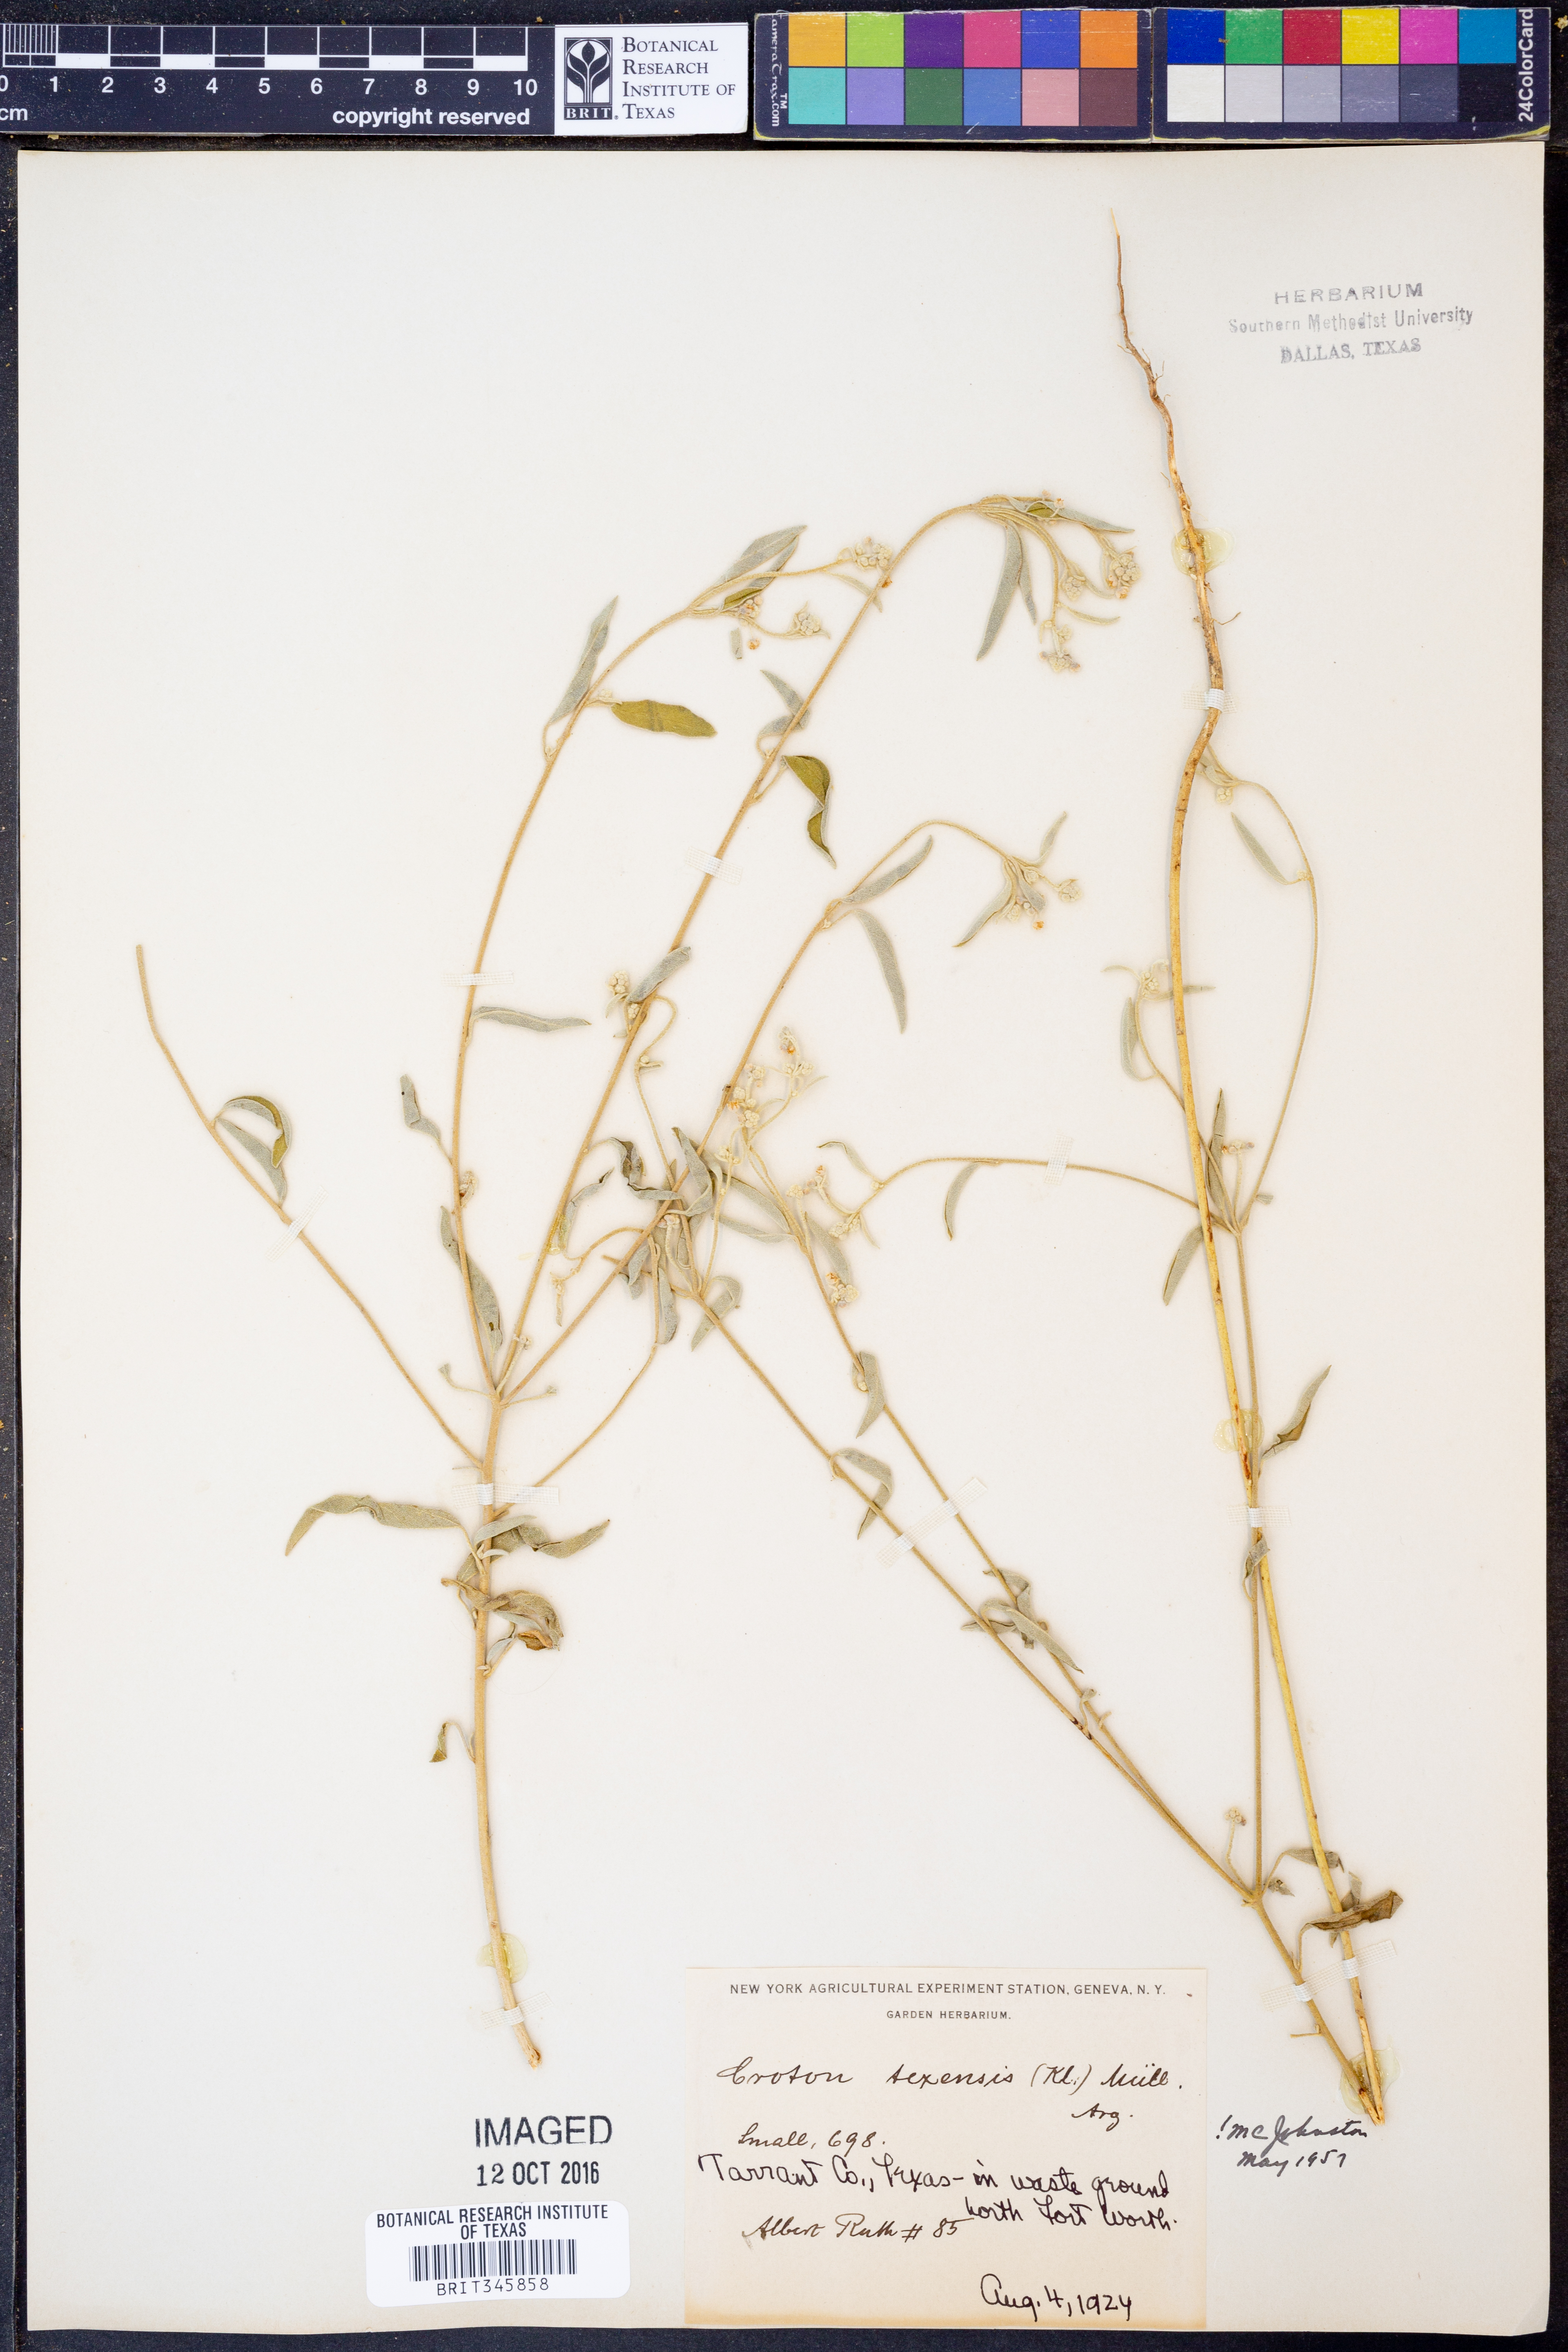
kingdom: Plantae
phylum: Tracheophyta
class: Magnoliopsida
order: Malpighiales
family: Euphorbiaceae
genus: Croton
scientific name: Croton texensis
